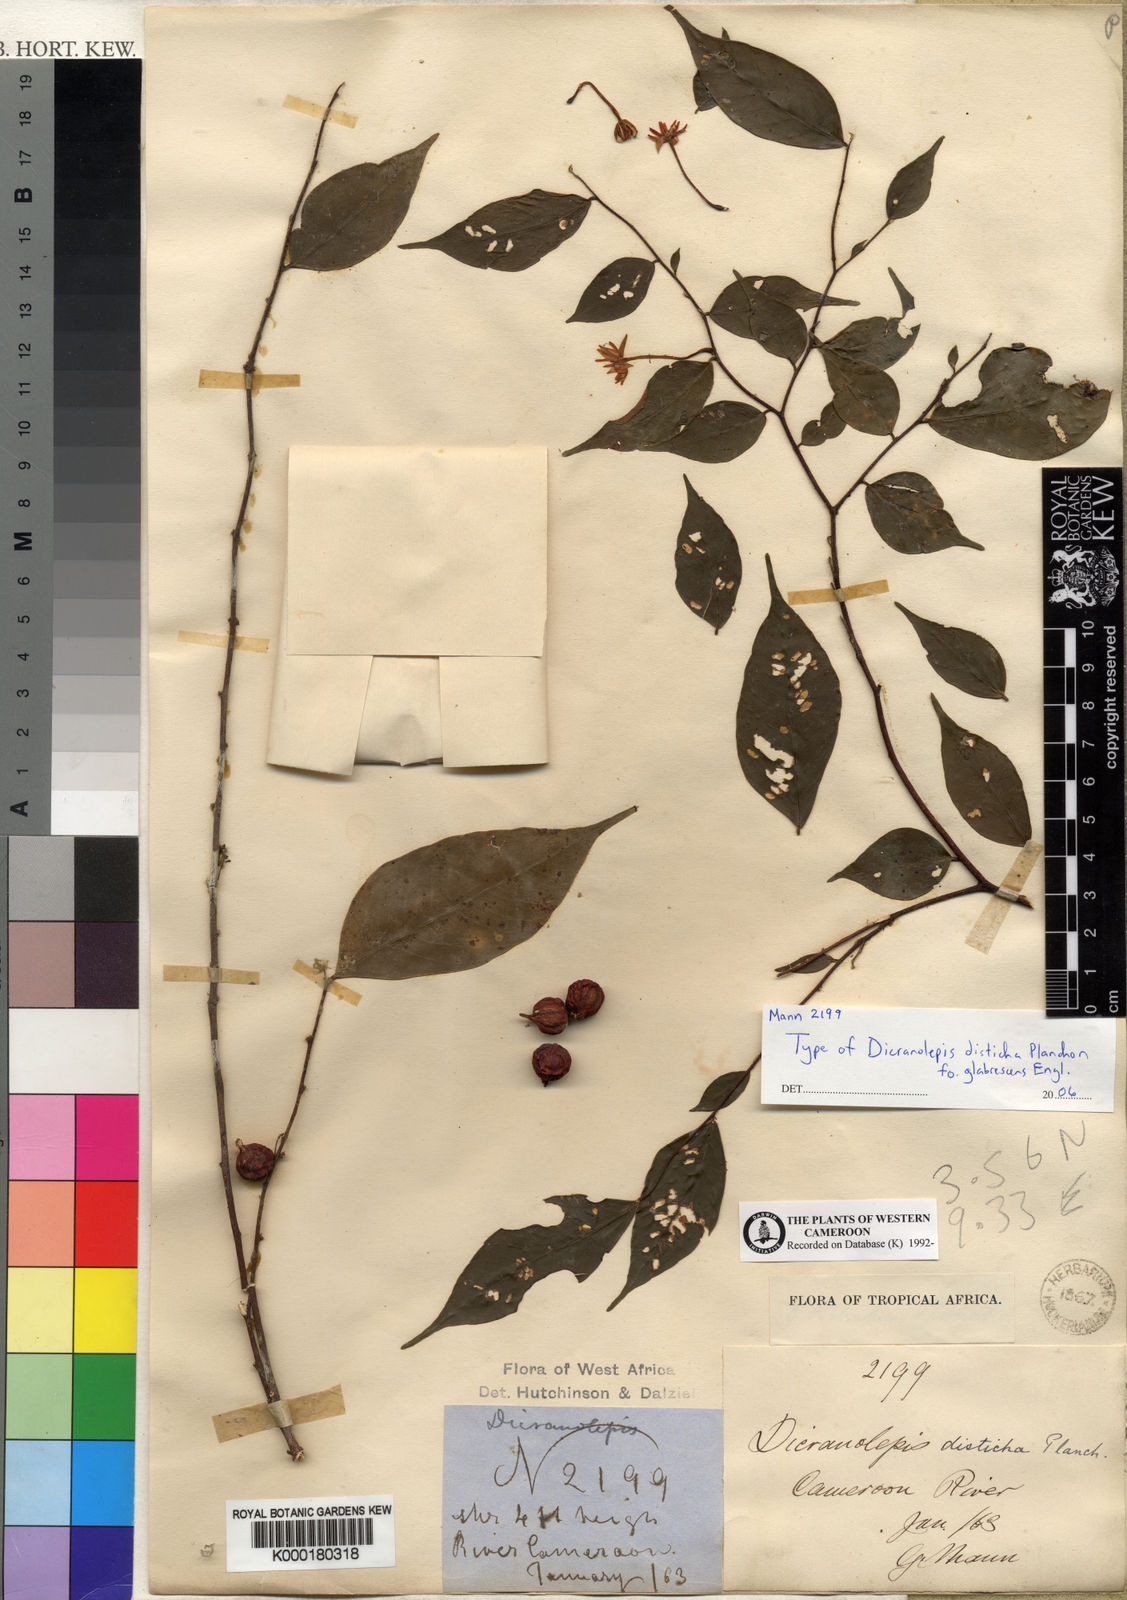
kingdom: Plantae
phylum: Tracheophyta
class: Magnoliopsida
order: Malvales
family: Thymelaeaceae
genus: Dicranolepis
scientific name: Dicranolepis disticha
